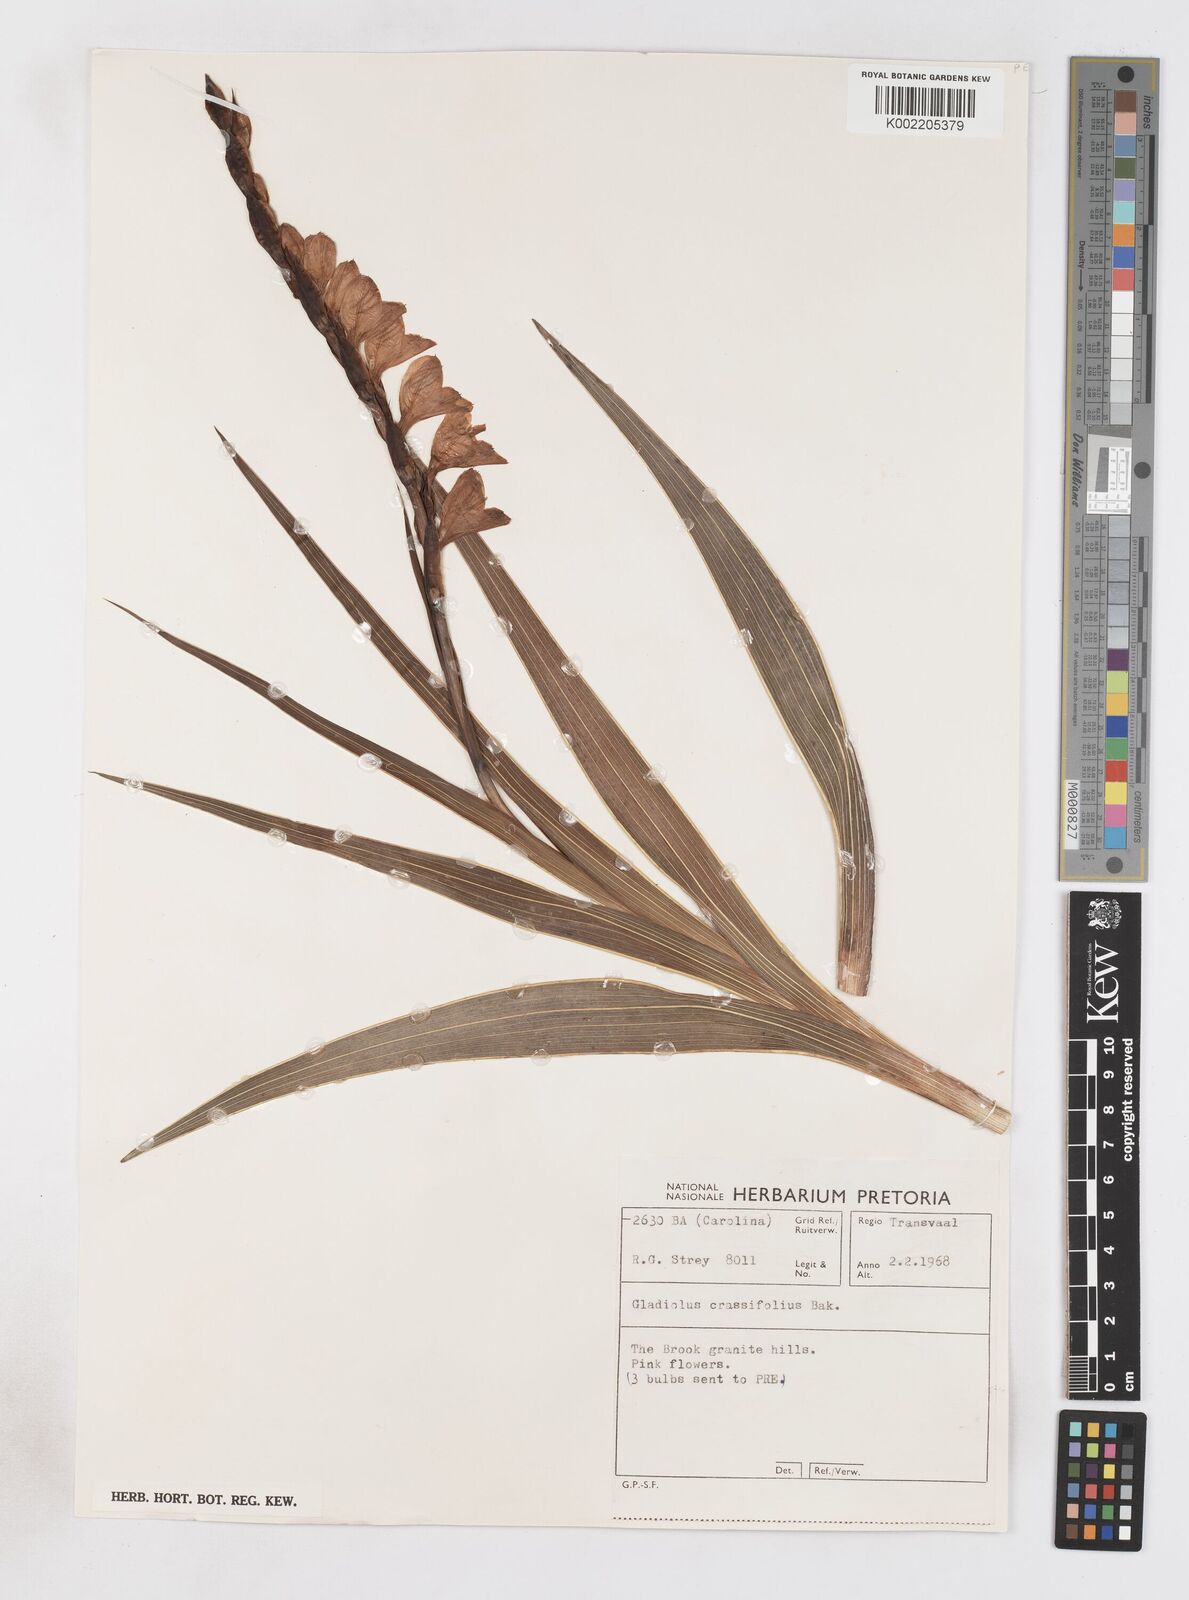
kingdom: Plantae
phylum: Tracheophyta
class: Liliopsida
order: Asparagales
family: Iridaceae
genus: Gladiolus
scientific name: Gladiolus crassifolius
